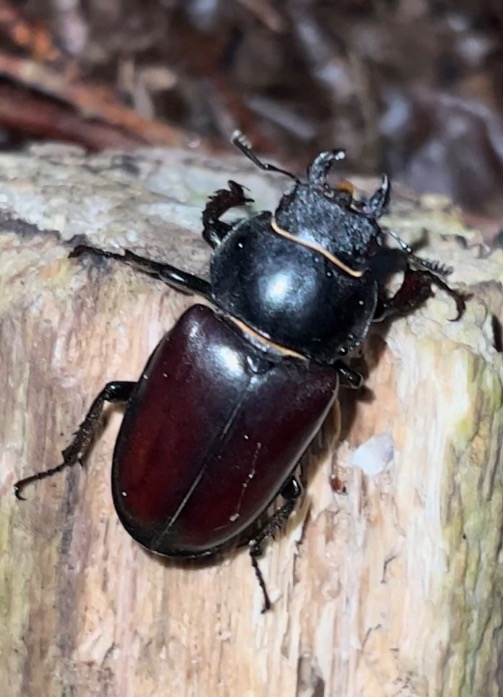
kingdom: Animalia
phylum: Arthropoda
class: Insecta
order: Coleoptera
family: Lucanidae
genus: Lucanus
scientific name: Lucanus cervus
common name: Eghjort
